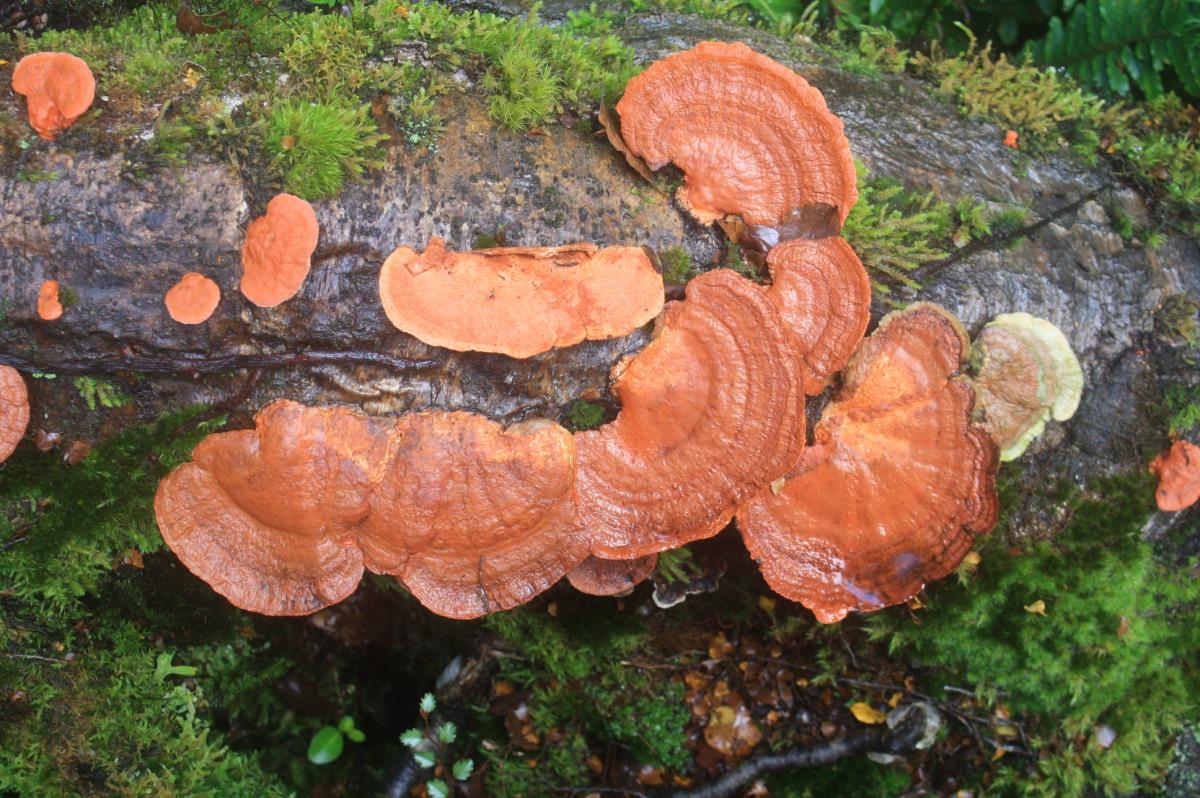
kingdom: Fungi
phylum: Basidiomycota
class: Agaricomycetes
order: Polyporales
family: Polyporaceae
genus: Trametes
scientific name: Trametes coccinea
